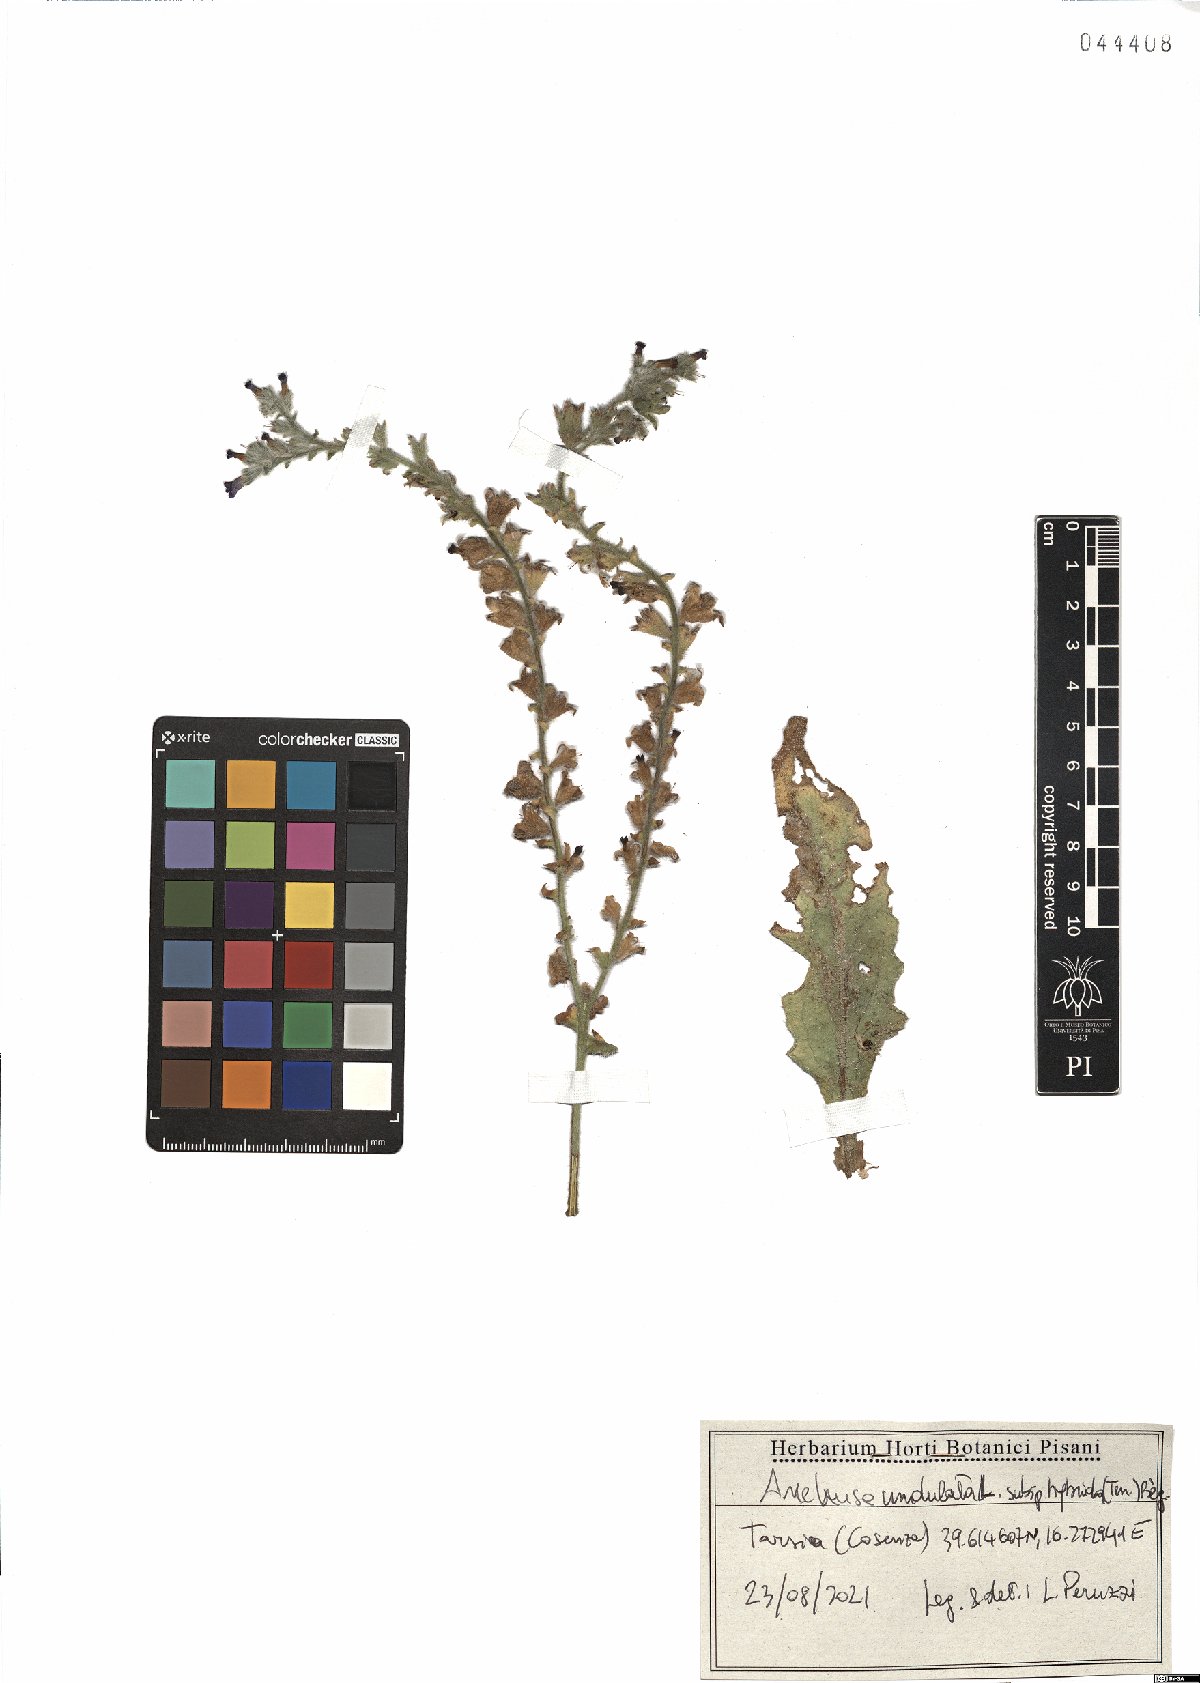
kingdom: Plantae
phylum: Tracheophyta
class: Magnoliopsida
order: Boraginales
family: Boraginaceae
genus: Anchusa
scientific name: Anchusa undulata
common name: Undulate alkanet
